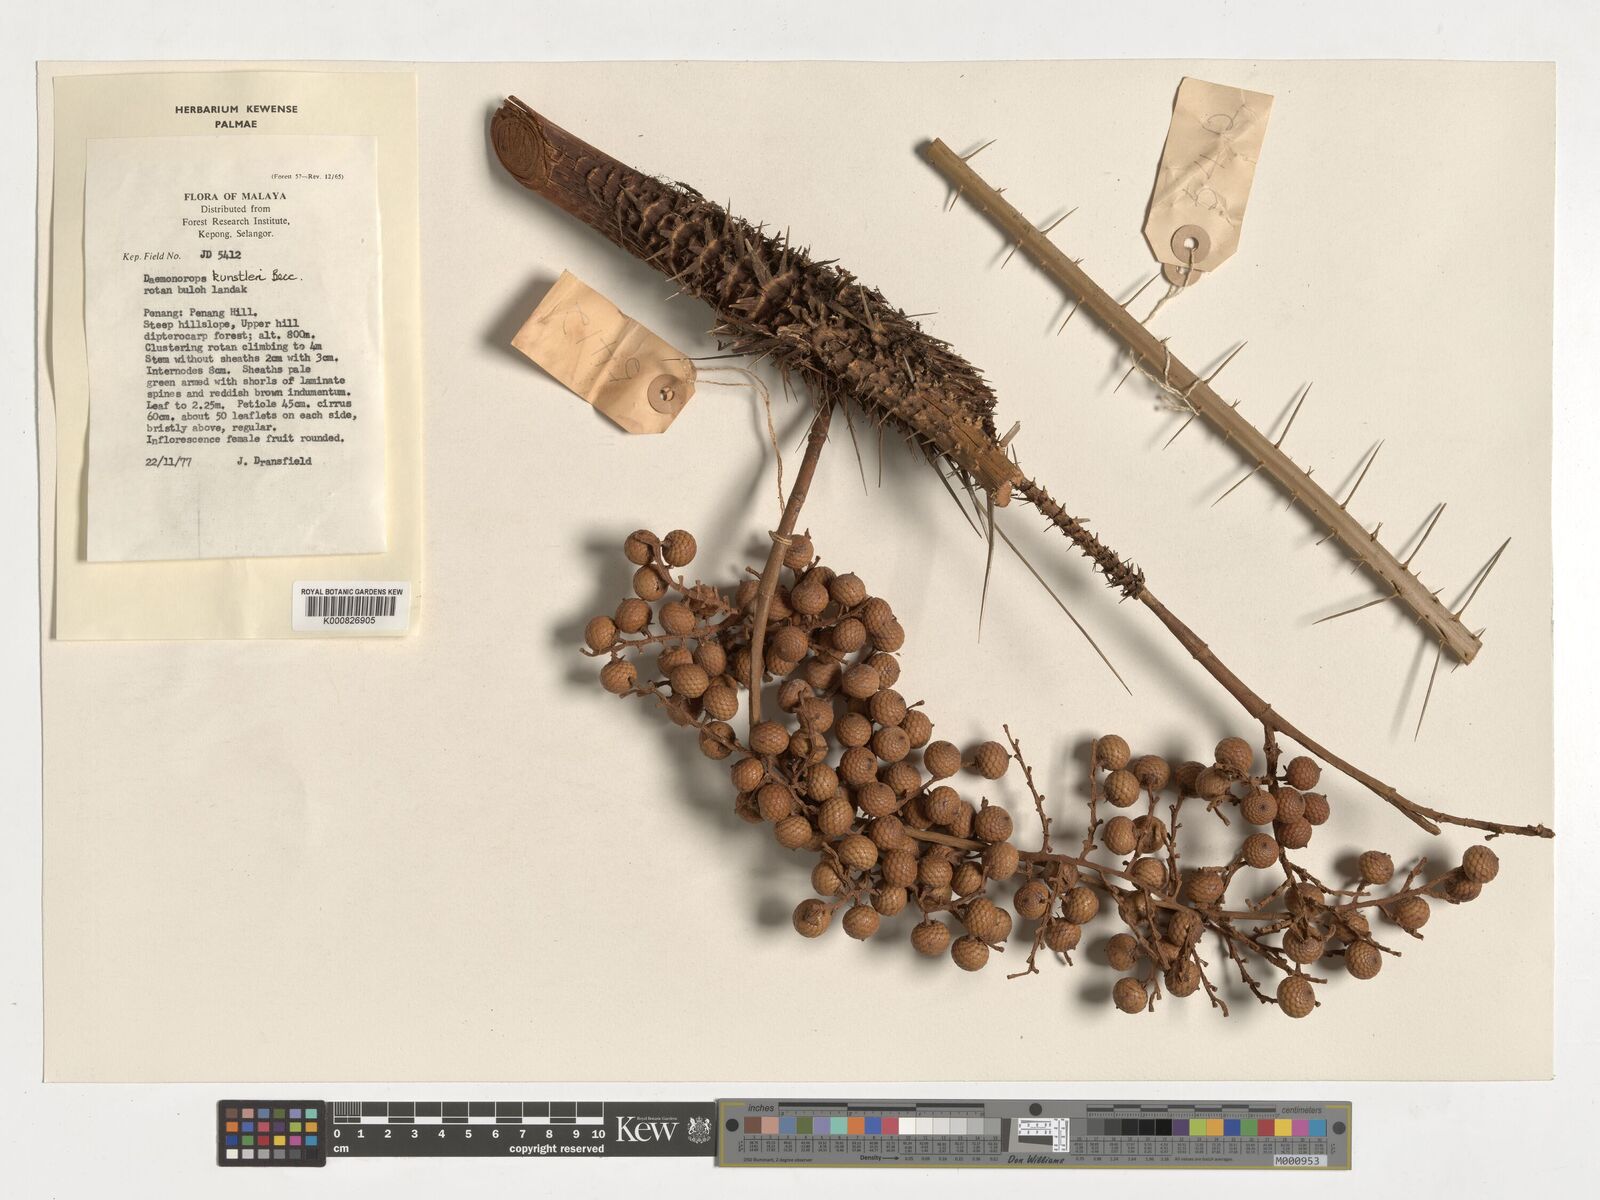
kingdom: Plantae
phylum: Tracheophyta
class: Liliopsida
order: Arecales
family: Arecaceae
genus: Calamus
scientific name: Calamus kunstleri
